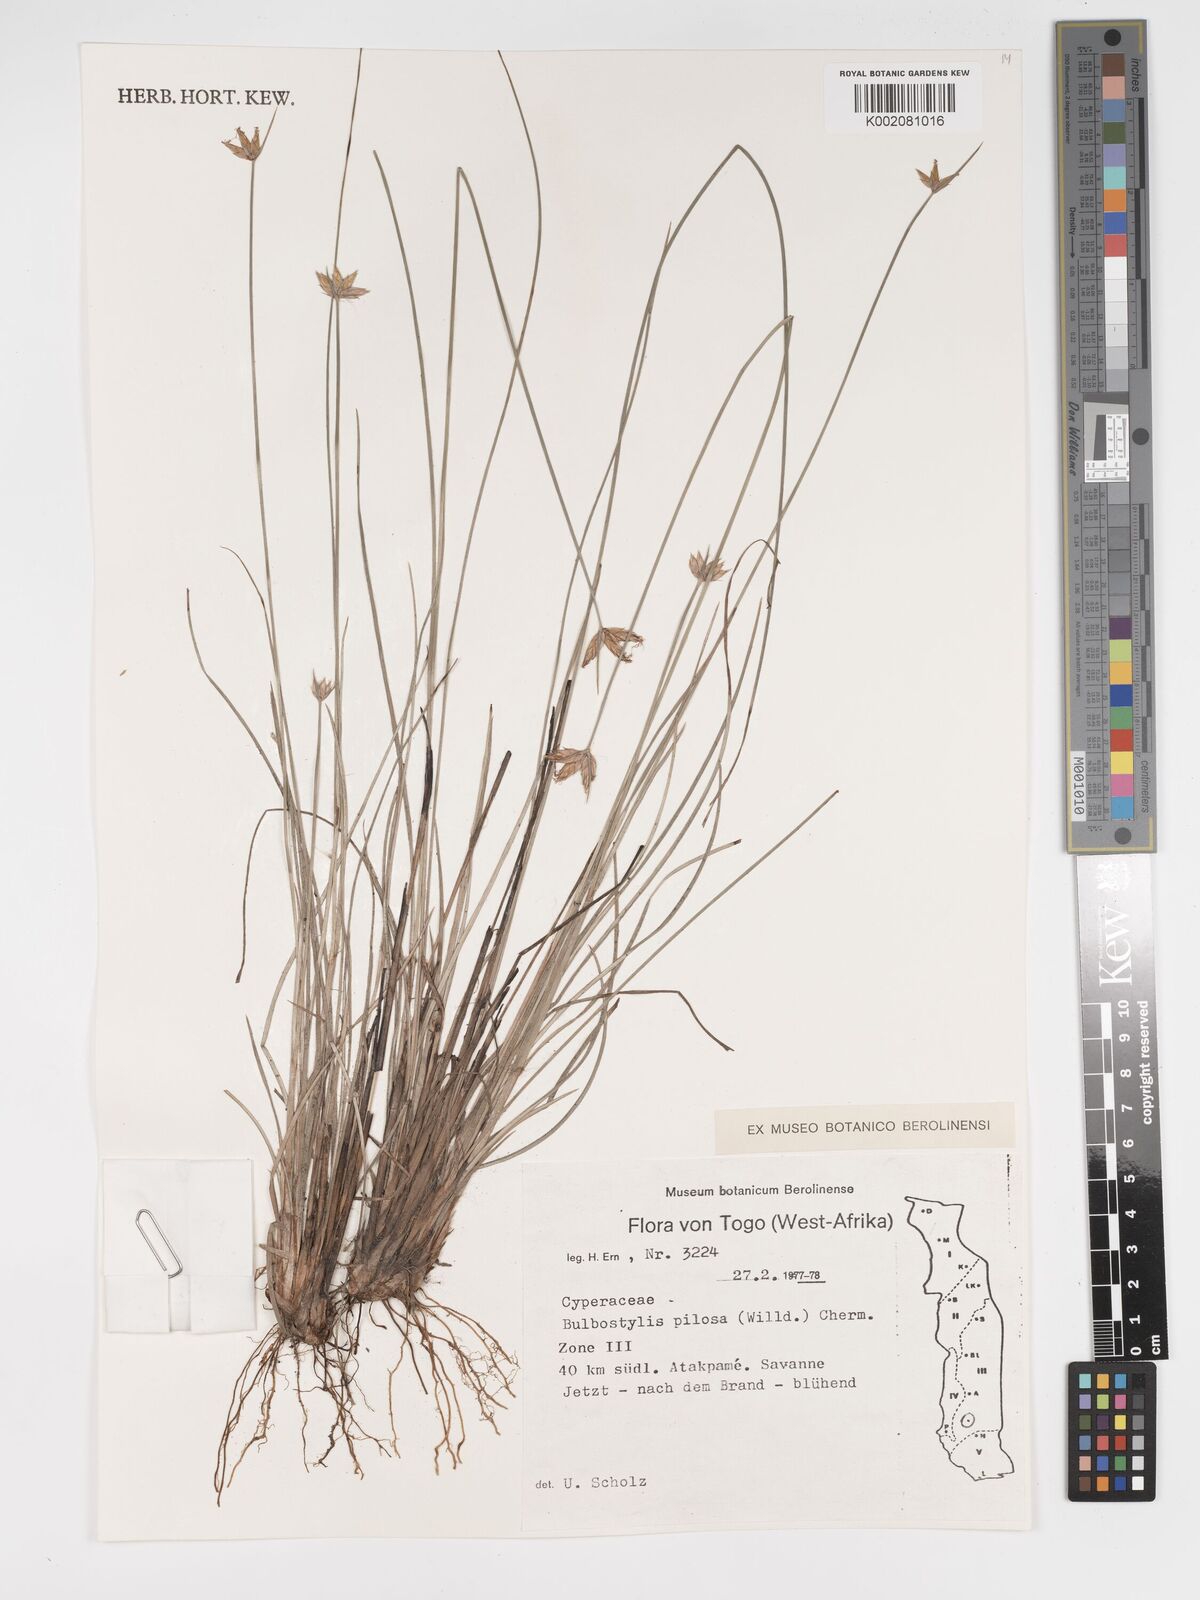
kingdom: Plantae
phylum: Tracheophyta
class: Liliopsida
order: Poales
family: Cyperaceae
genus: Bulbostylis
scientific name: Bulbostylis pilosa
